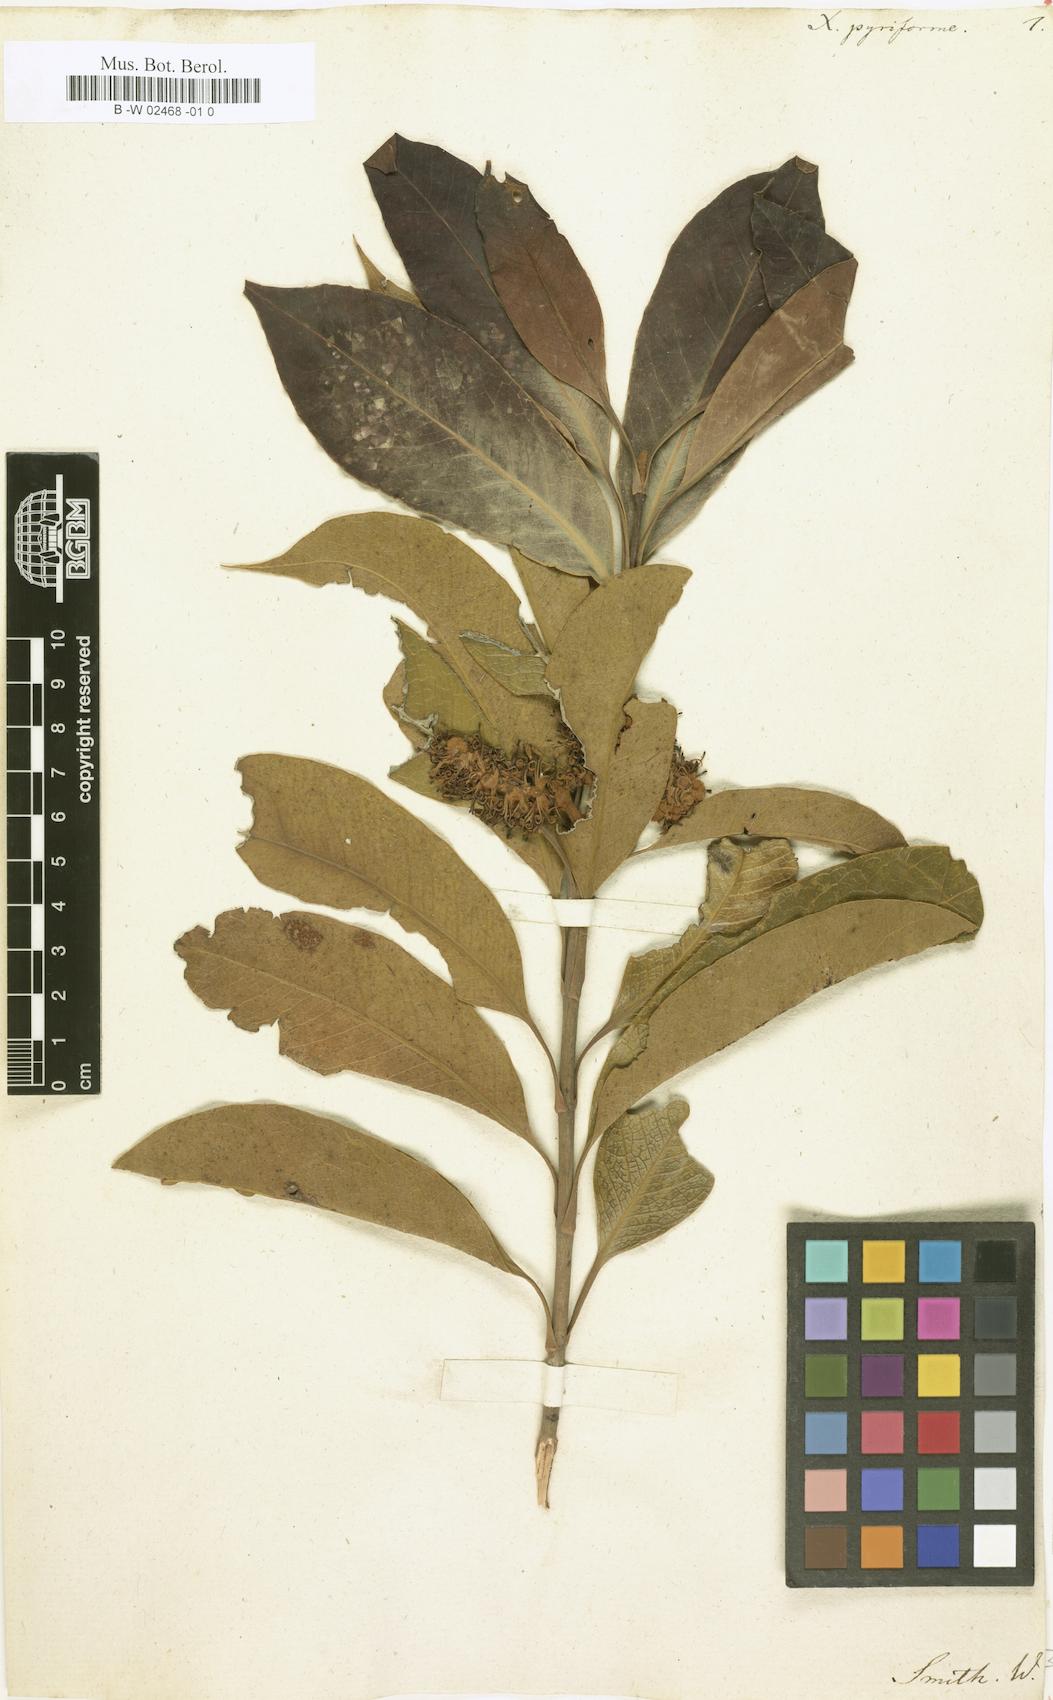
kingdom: Plantae
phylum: Tracheophyta
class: Magnoliopsida
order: Proteales
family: Proteaceae
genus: Xylomelum
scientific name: Xylomelum pyriforme
